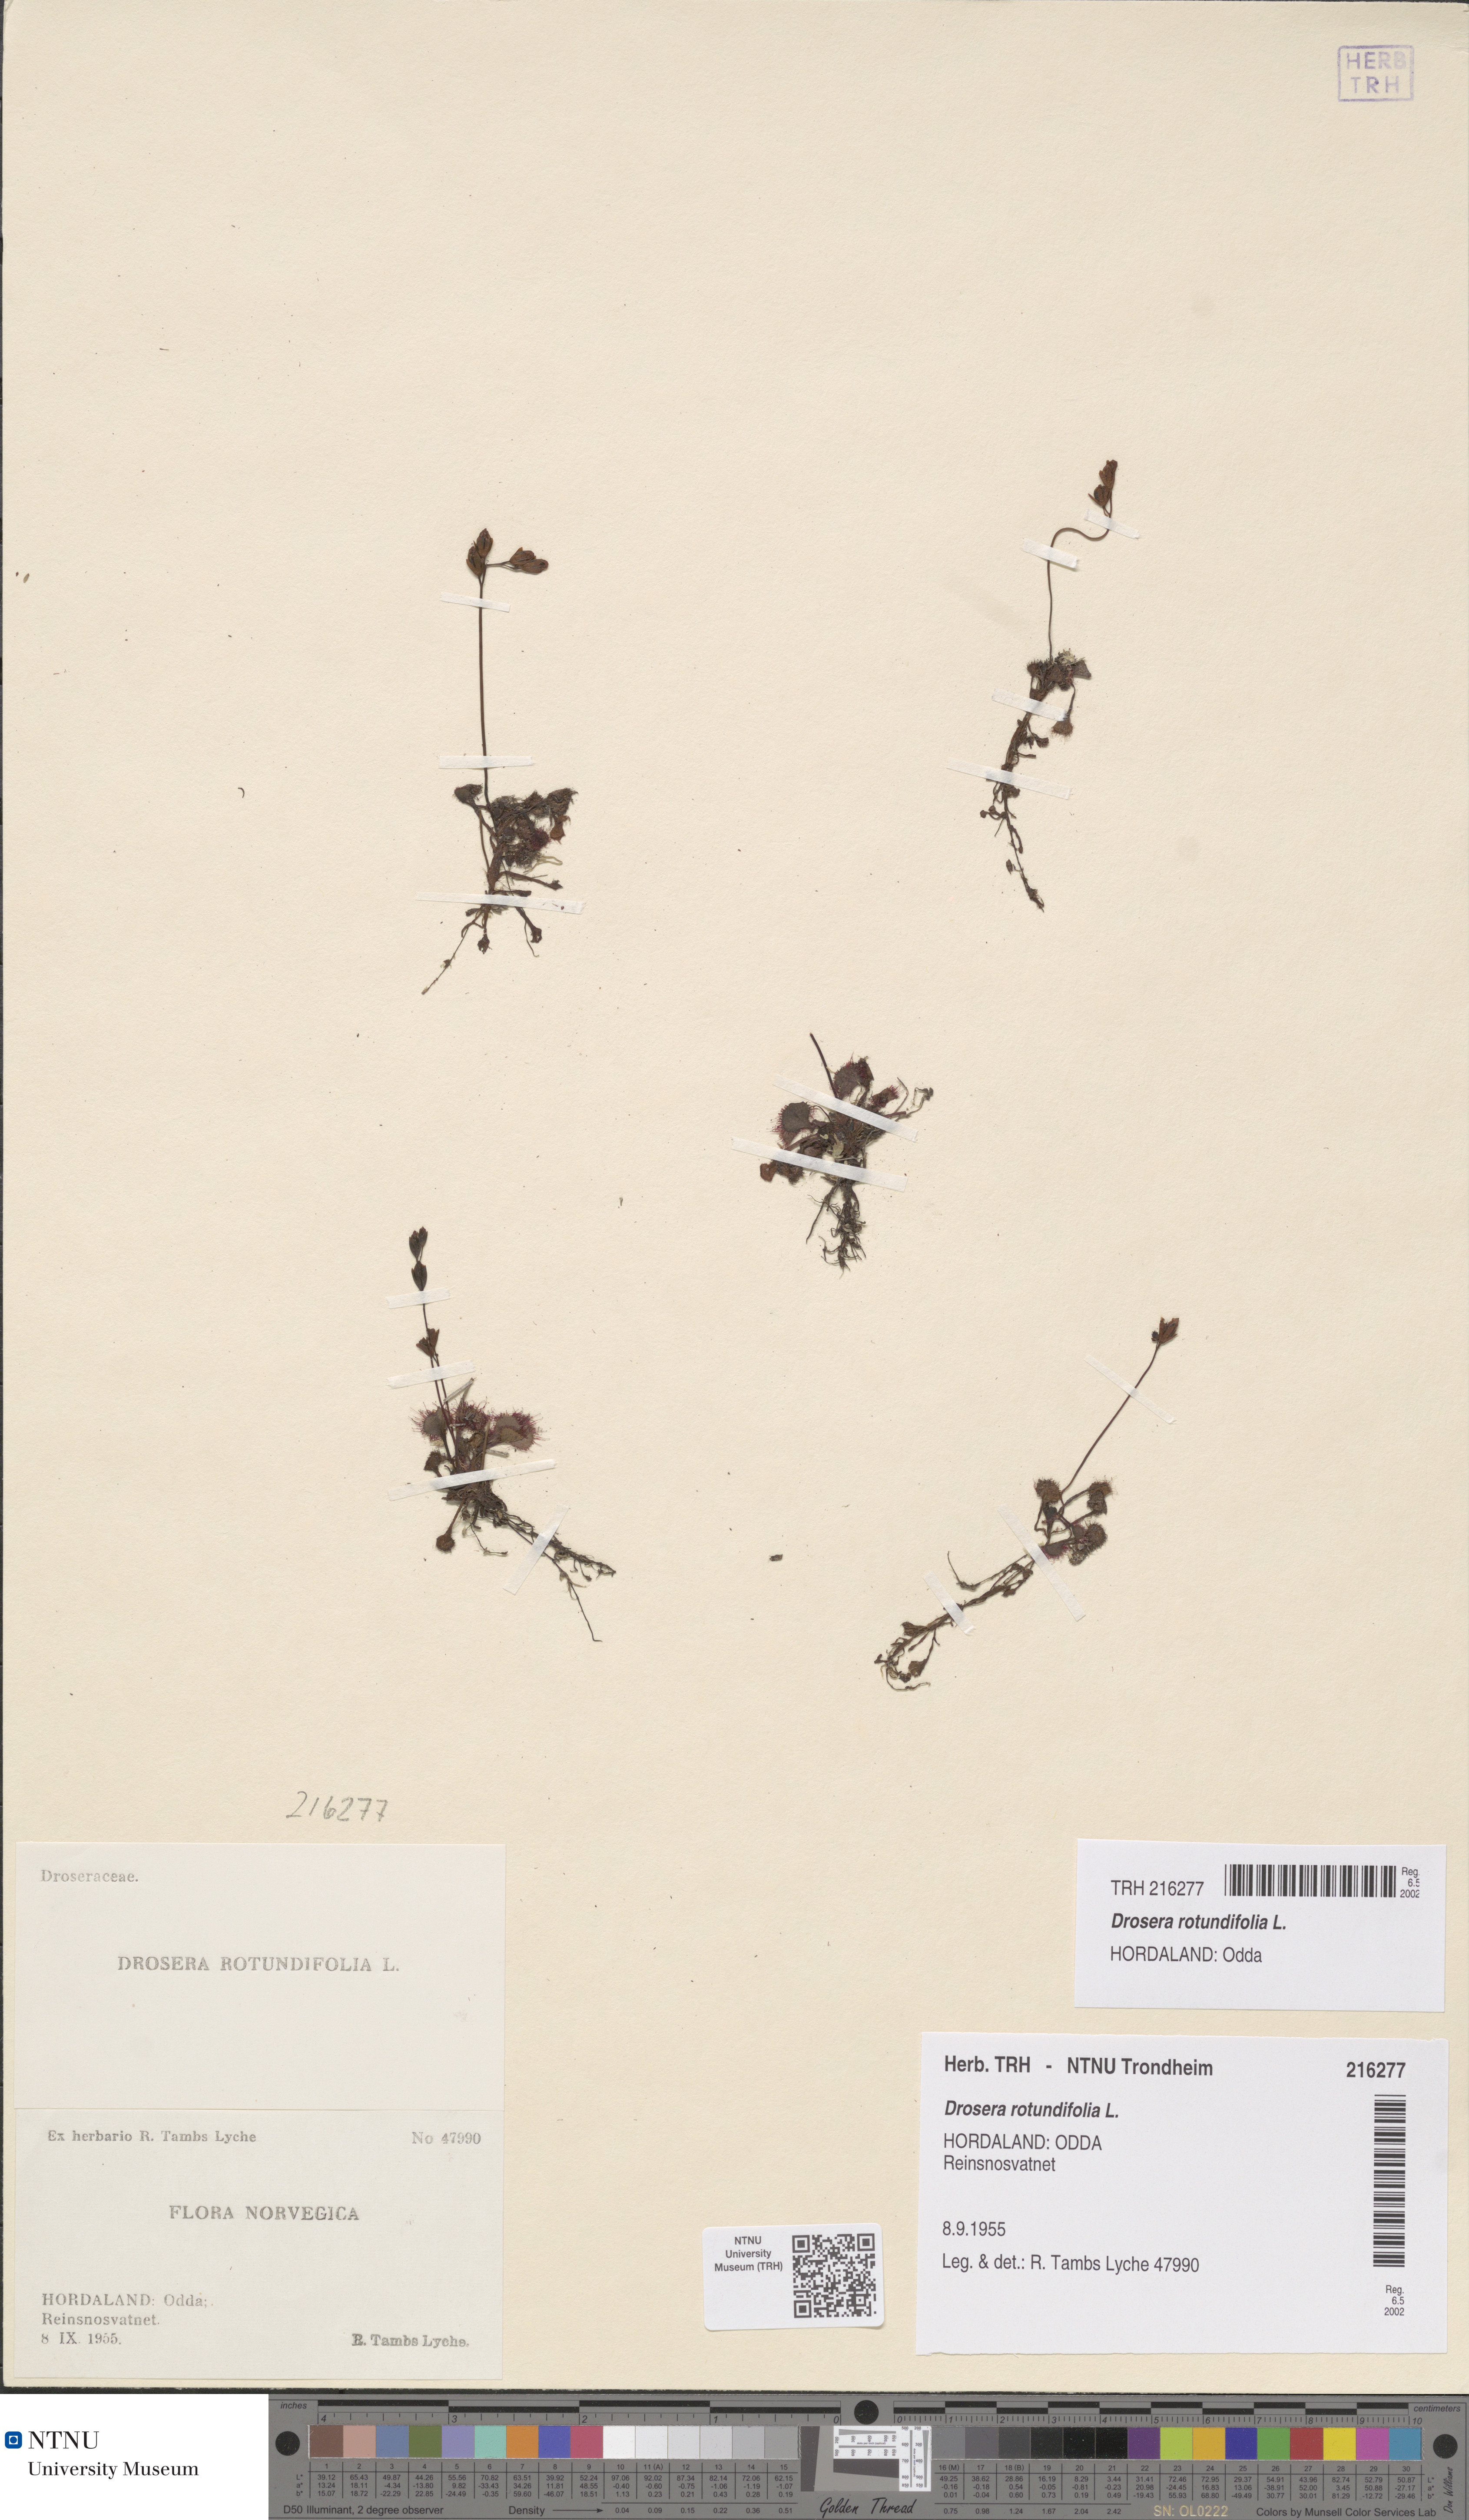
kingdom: Plantae
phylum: Tracheophyta
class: Magnoliopsida
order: Caryophyllales
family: Droseraceae
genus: Drosera
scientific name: Drosera rotundifolia
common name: Round-leaved sundew
